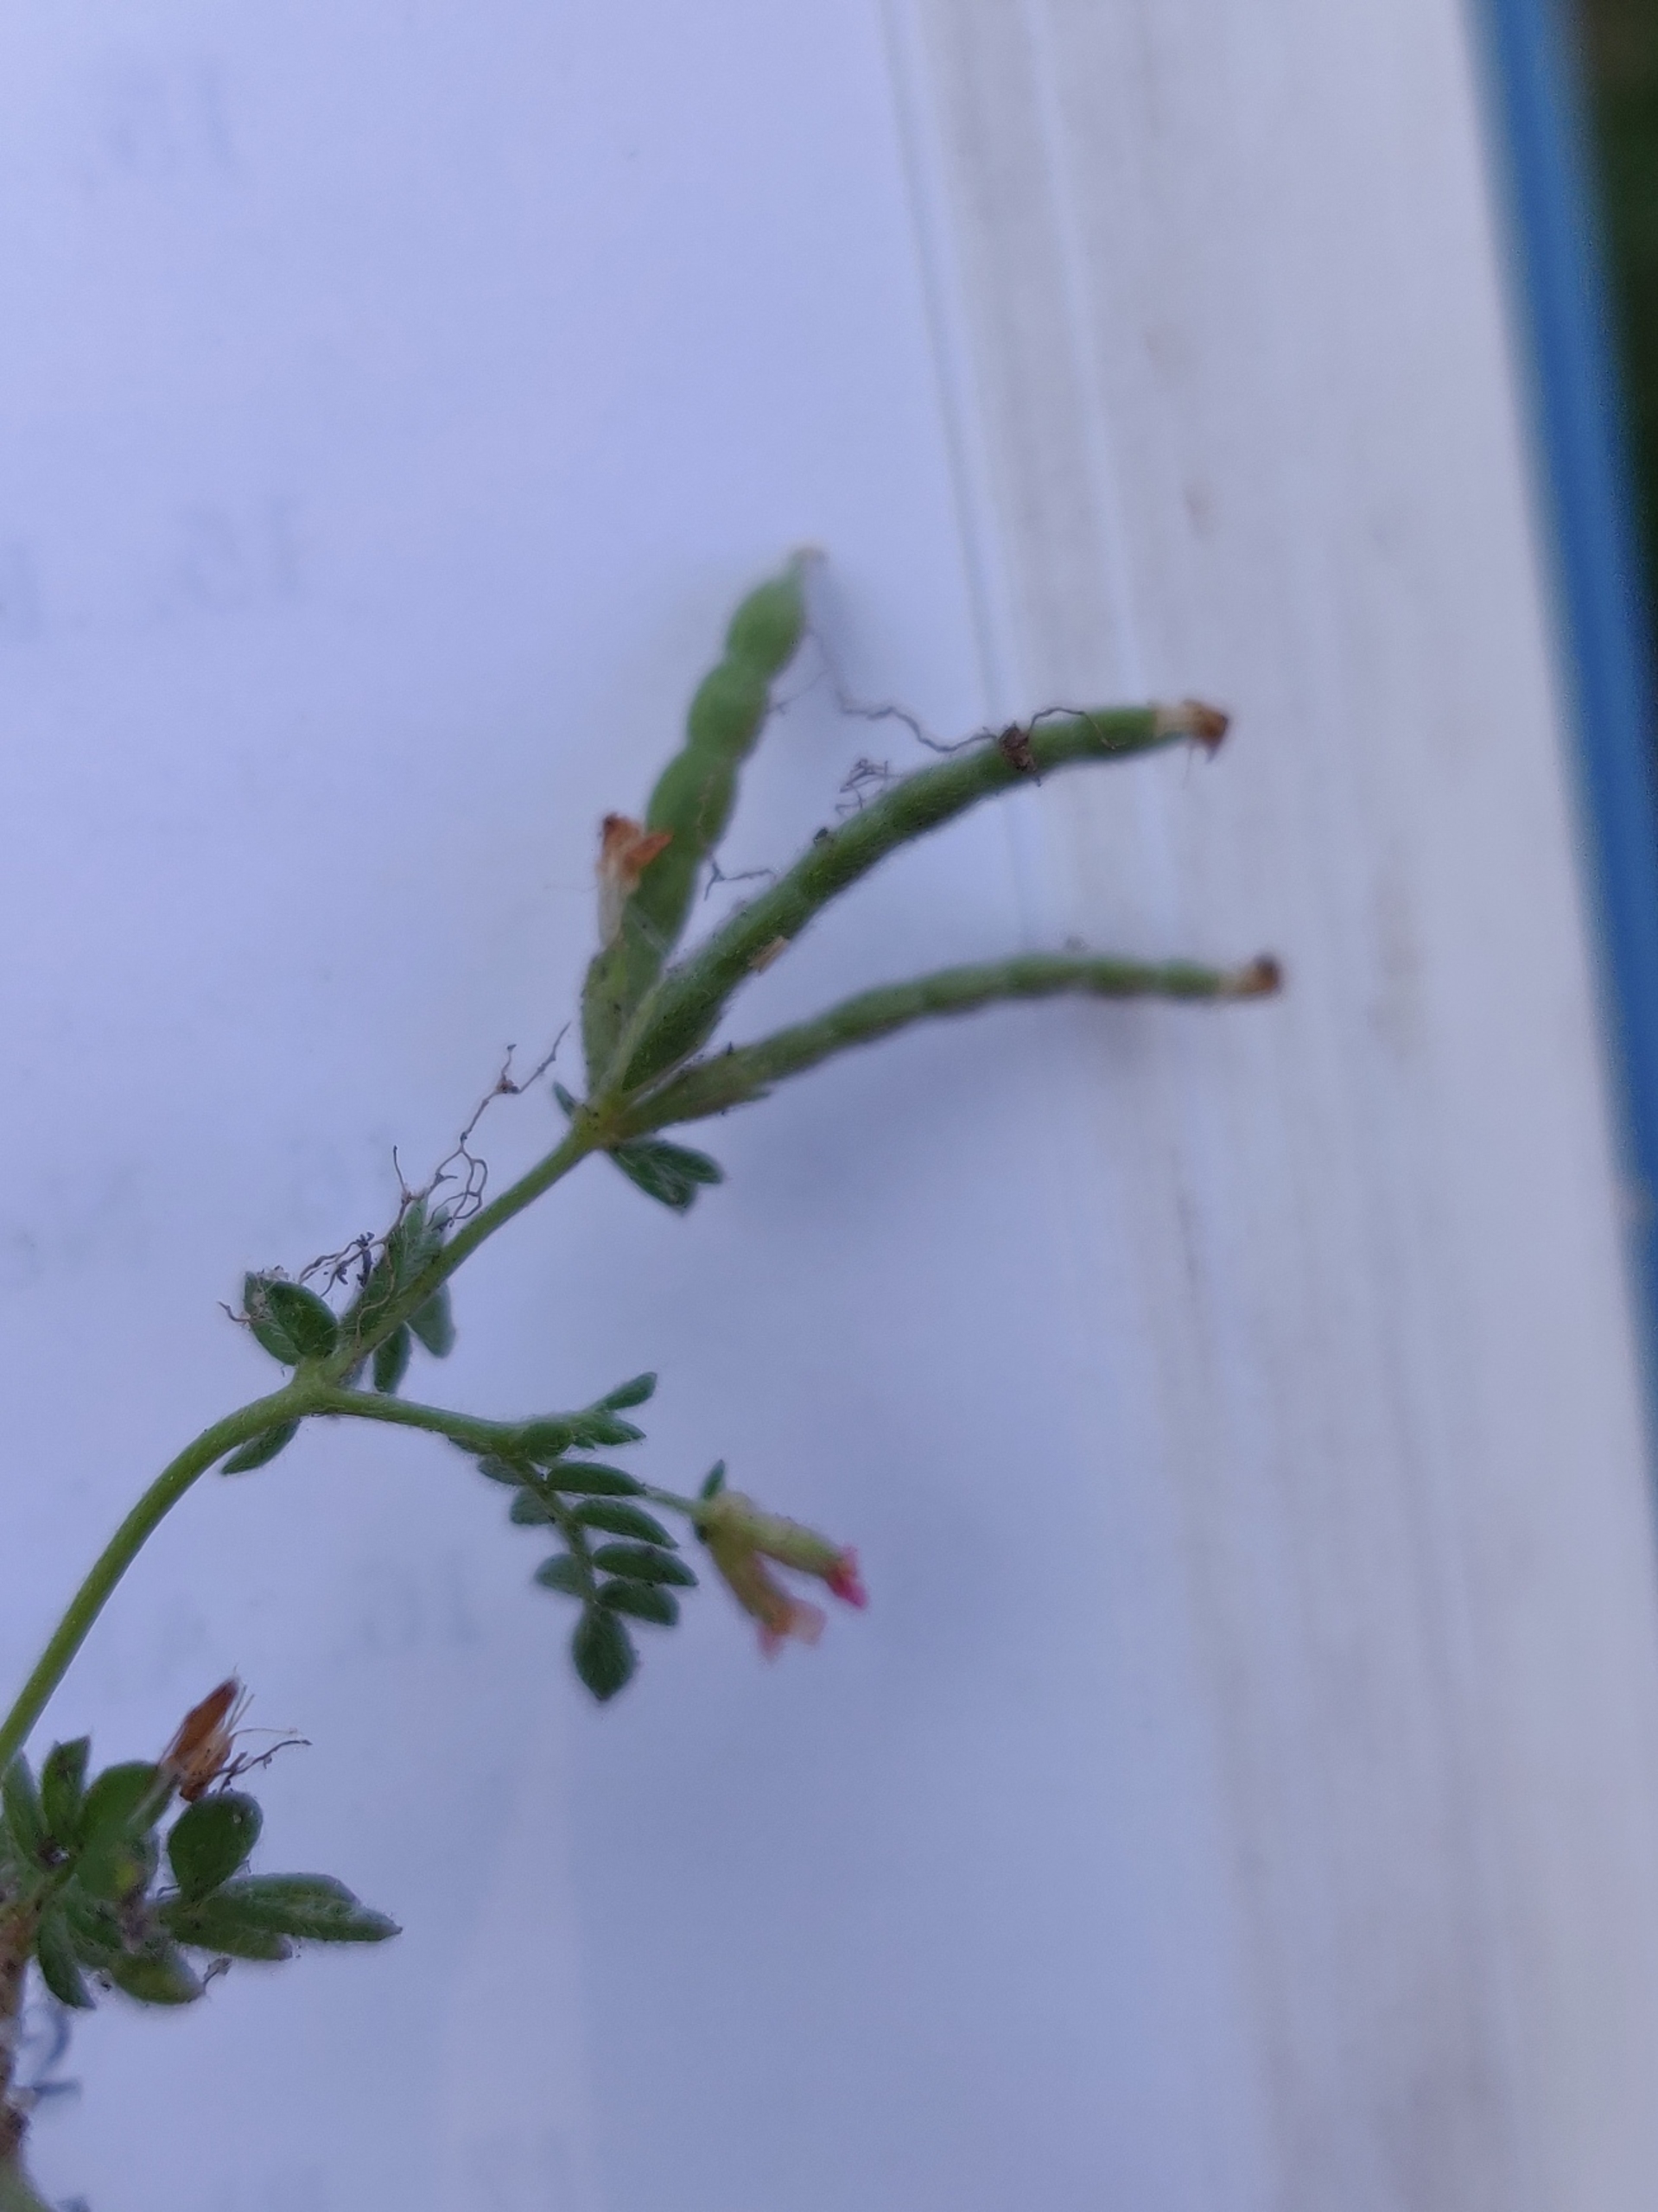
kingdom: Plantae
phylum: Tracheophyta
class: Magnoliopsida
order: Fabales
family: Fabaceae
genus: Ornithopus
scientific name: Ornithopus perpusillus
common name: Liden fugleklo
